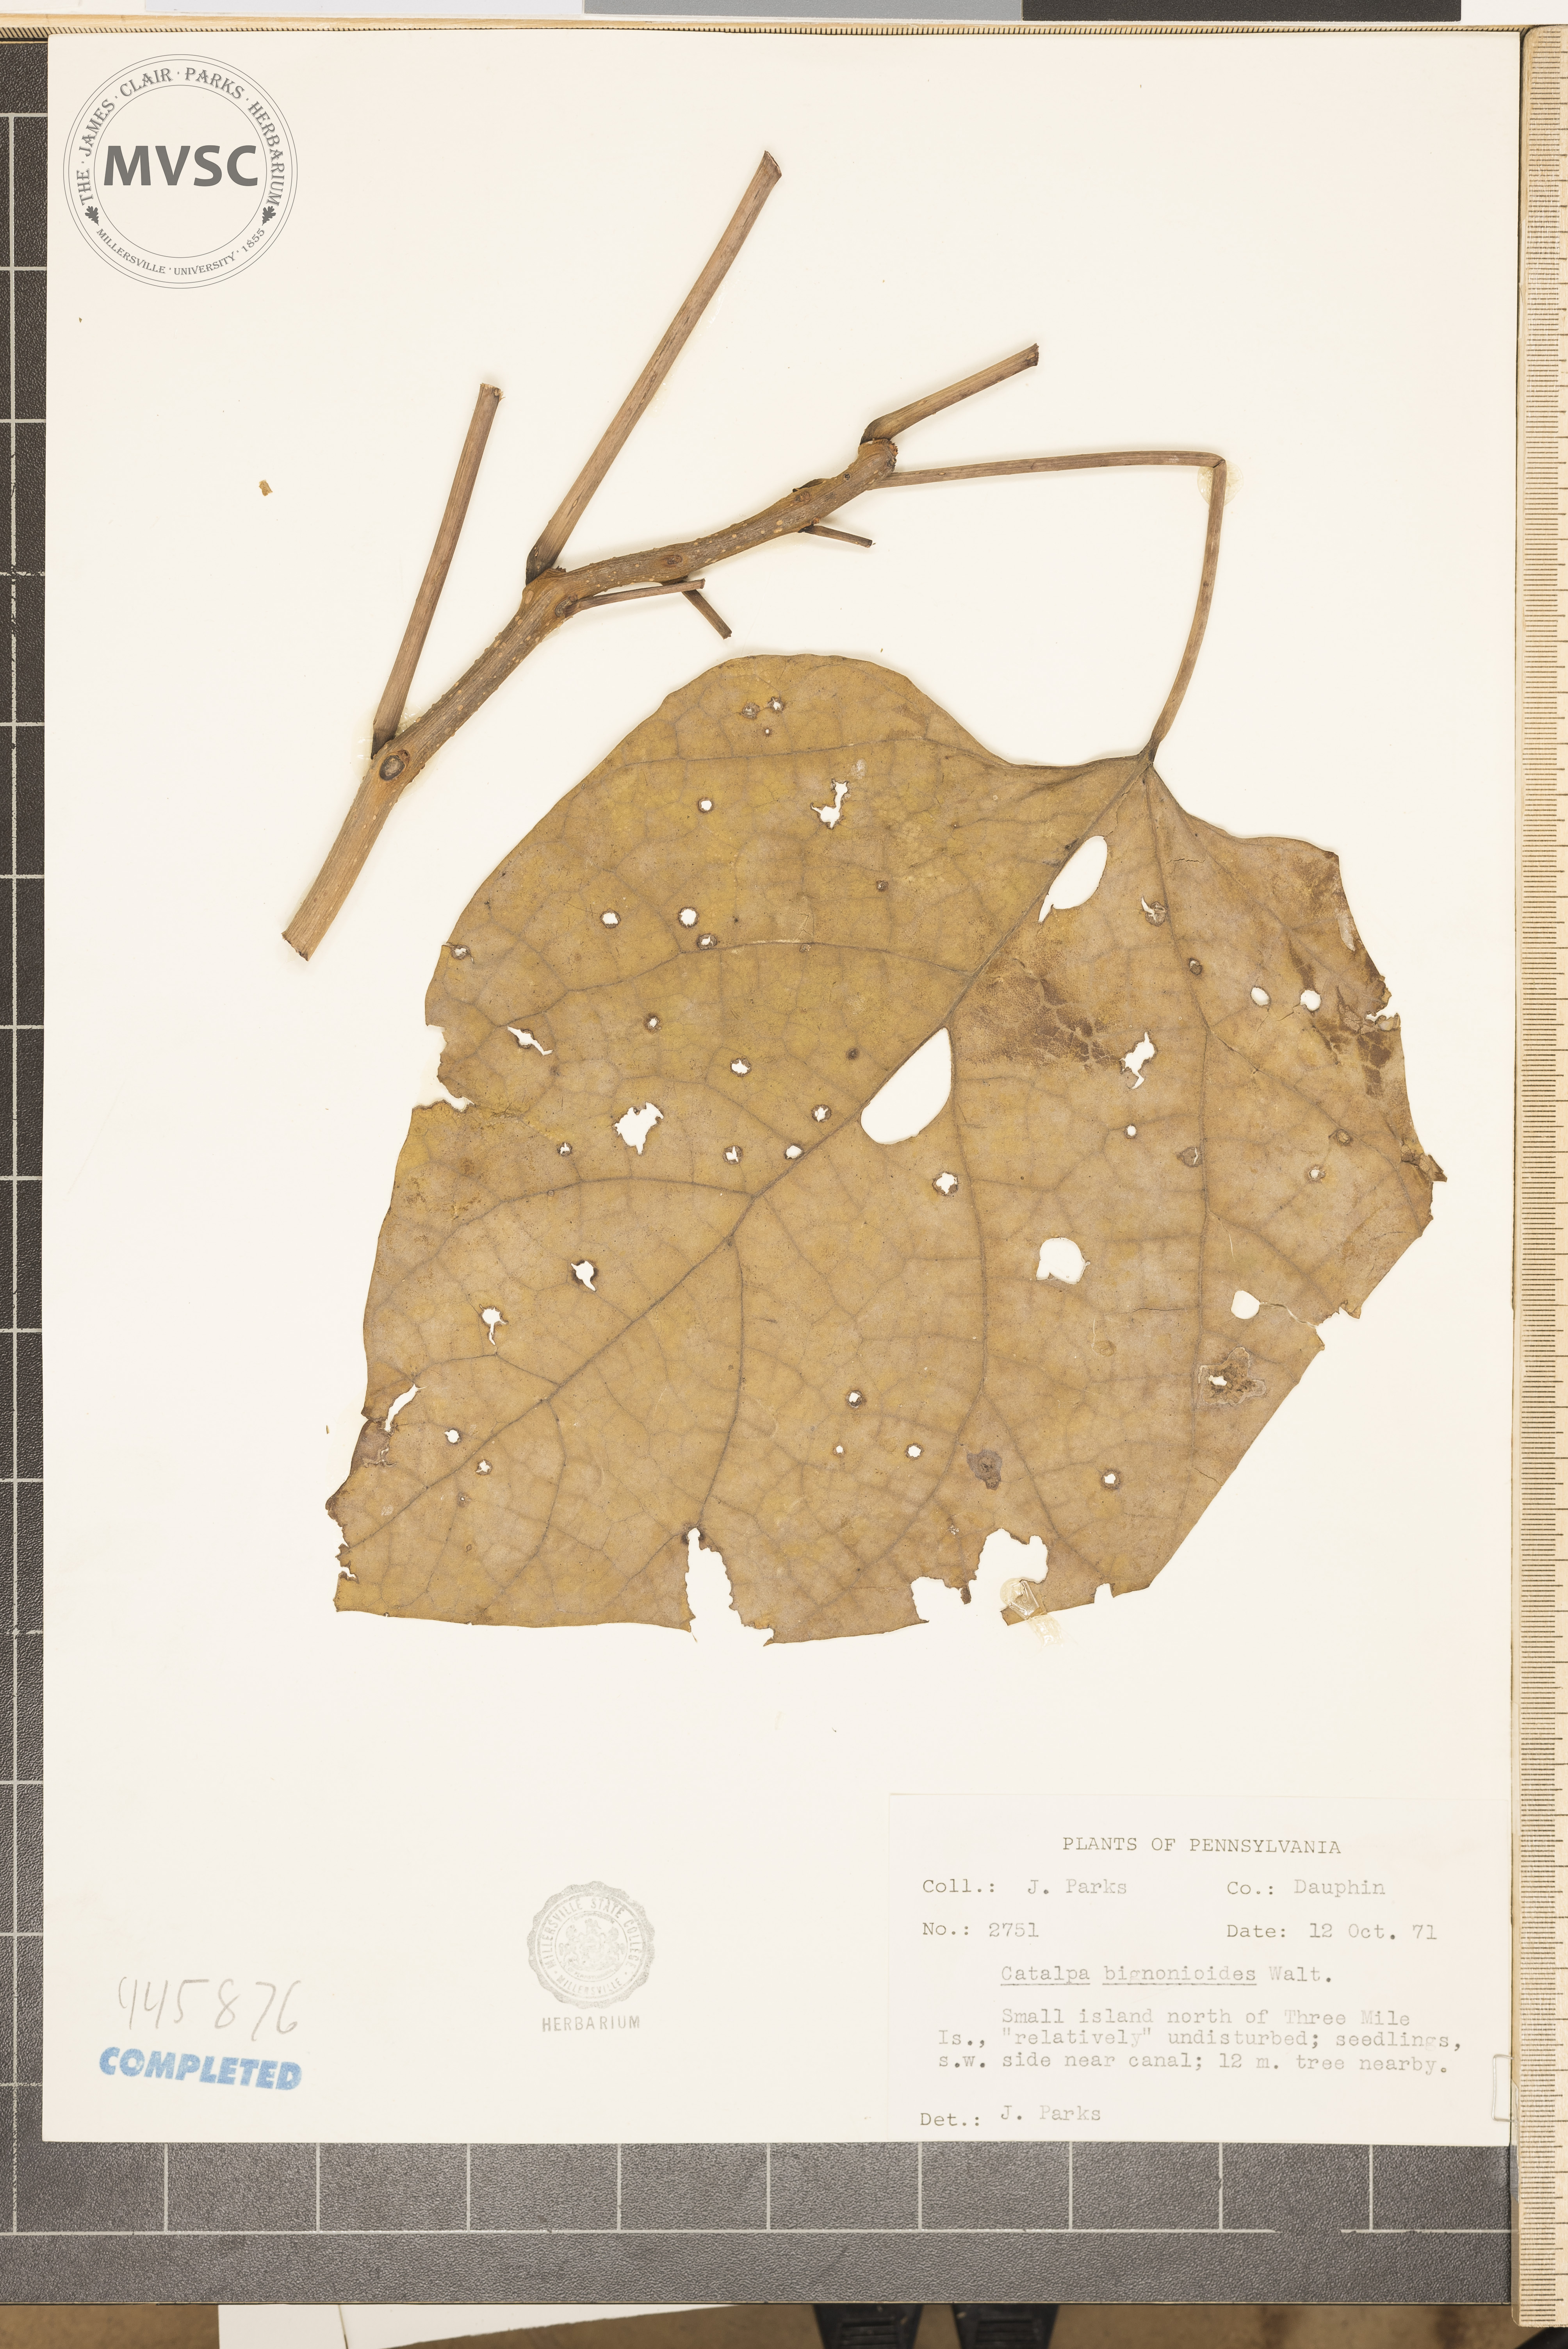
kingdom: Plantae
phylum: Tracheophyta
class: Magnoliopsida
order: Lamiales
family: Bignoniaceae
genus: Catalpa
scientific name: Catalpa bignonioides
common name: Southern catalpa
